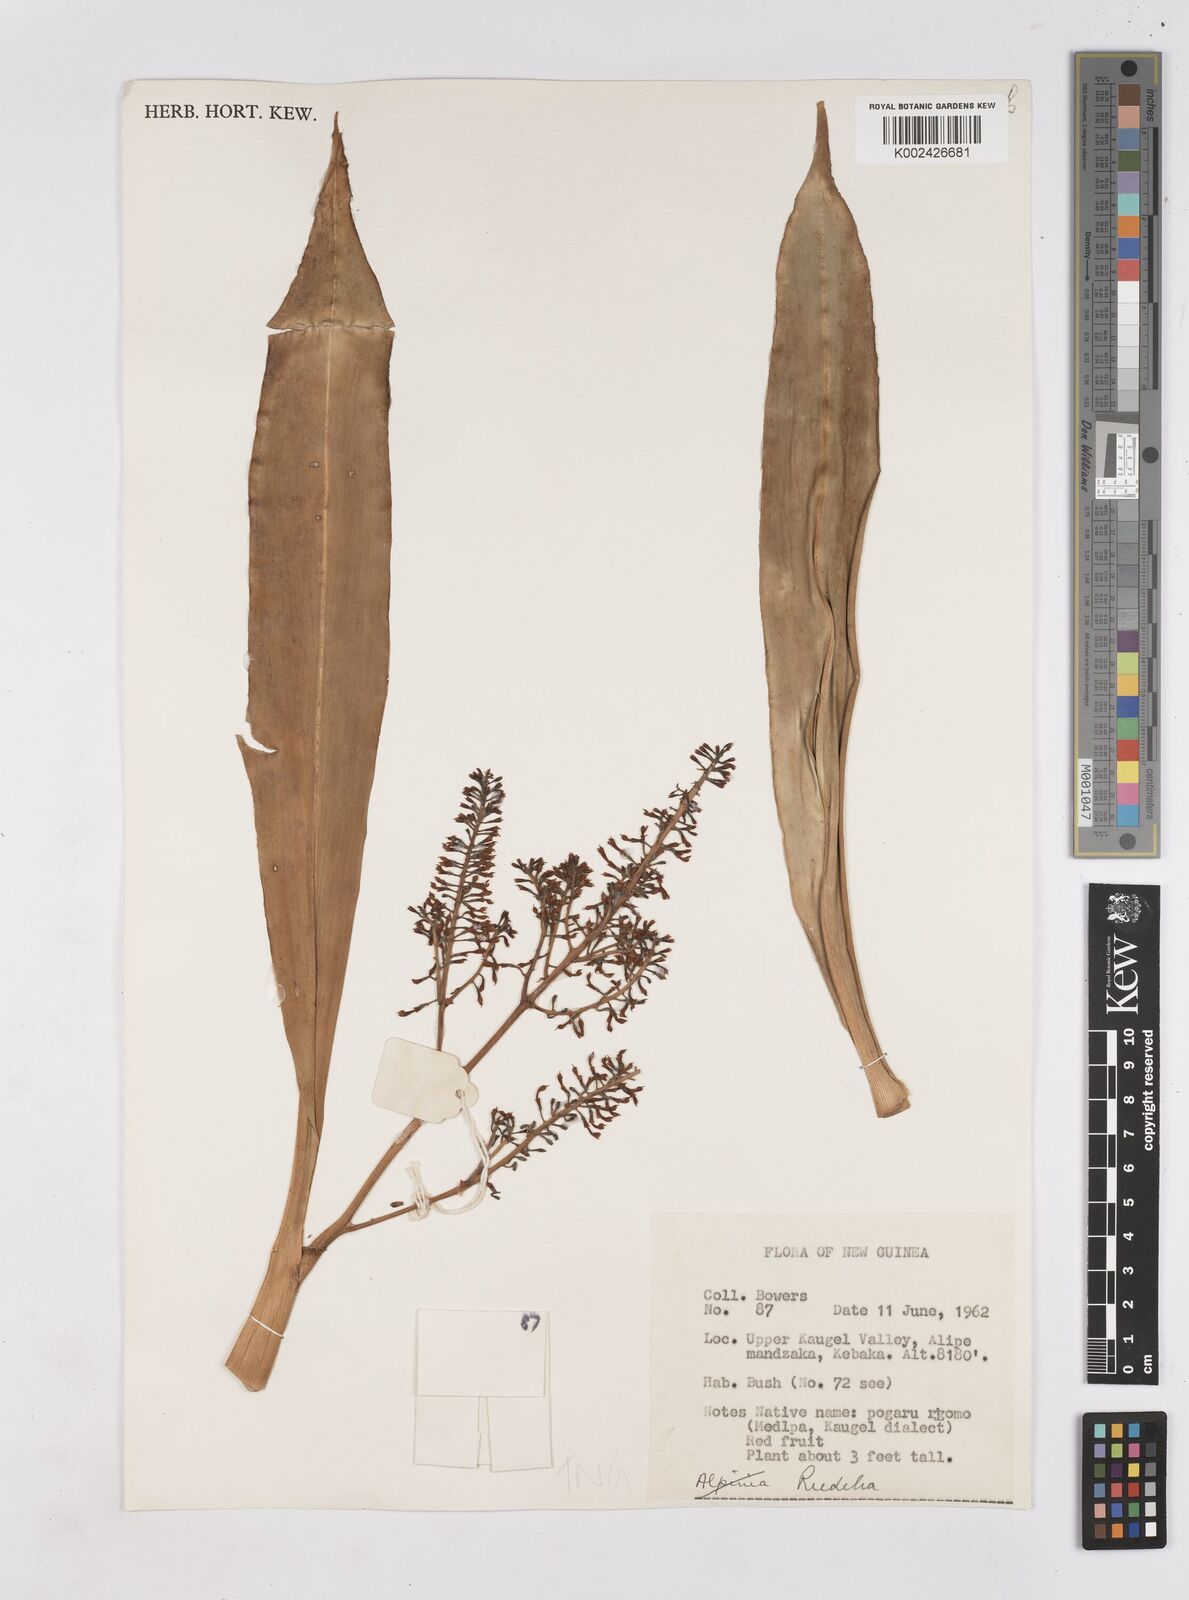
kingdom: Plantae
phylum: Tracheophyta
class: Liliopsida
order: Zingiberales
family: Zingiberaceae
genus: Riedelia
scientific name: Riedelia
